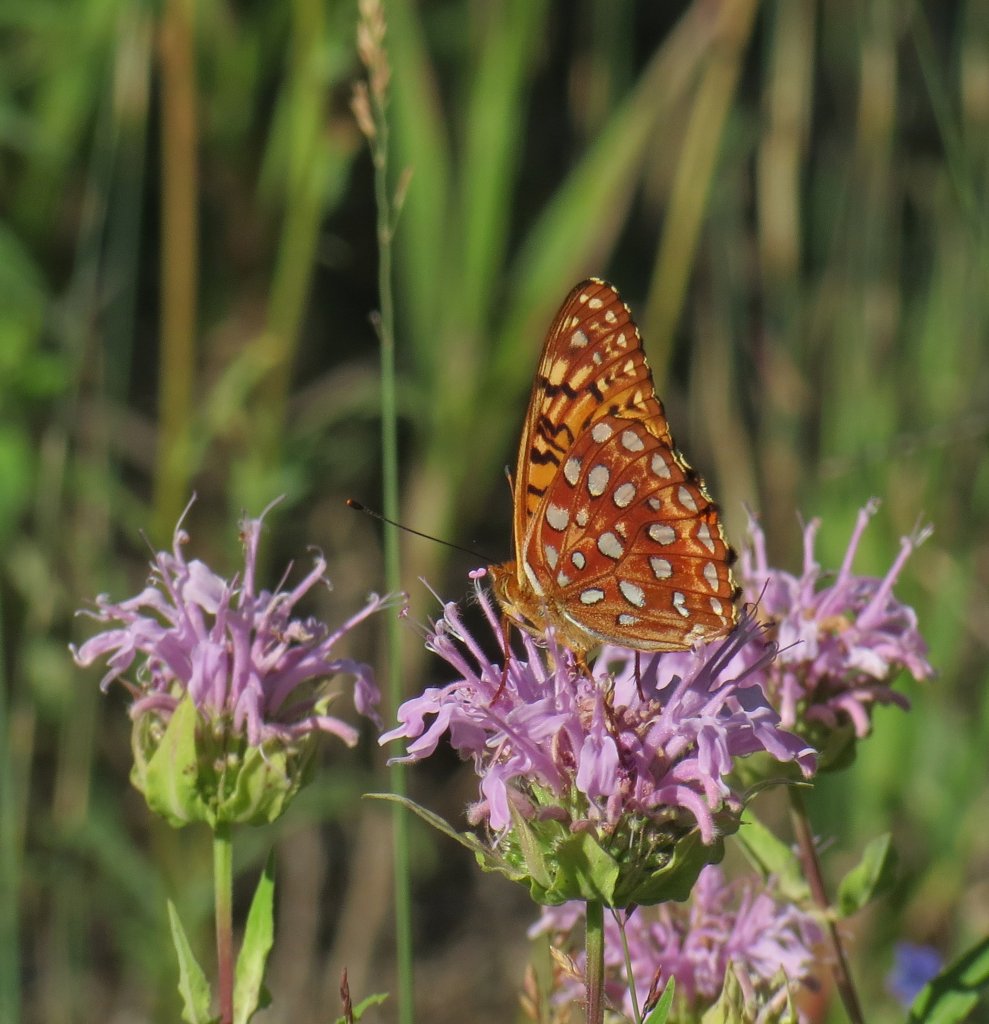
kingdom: Animalia
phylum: Arthropoda
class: Insecta
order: Lepidoptera
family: Nymphalidae
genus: Speyeria
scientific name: Speyeria aphrodite
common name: Aphrodite Fritillary
